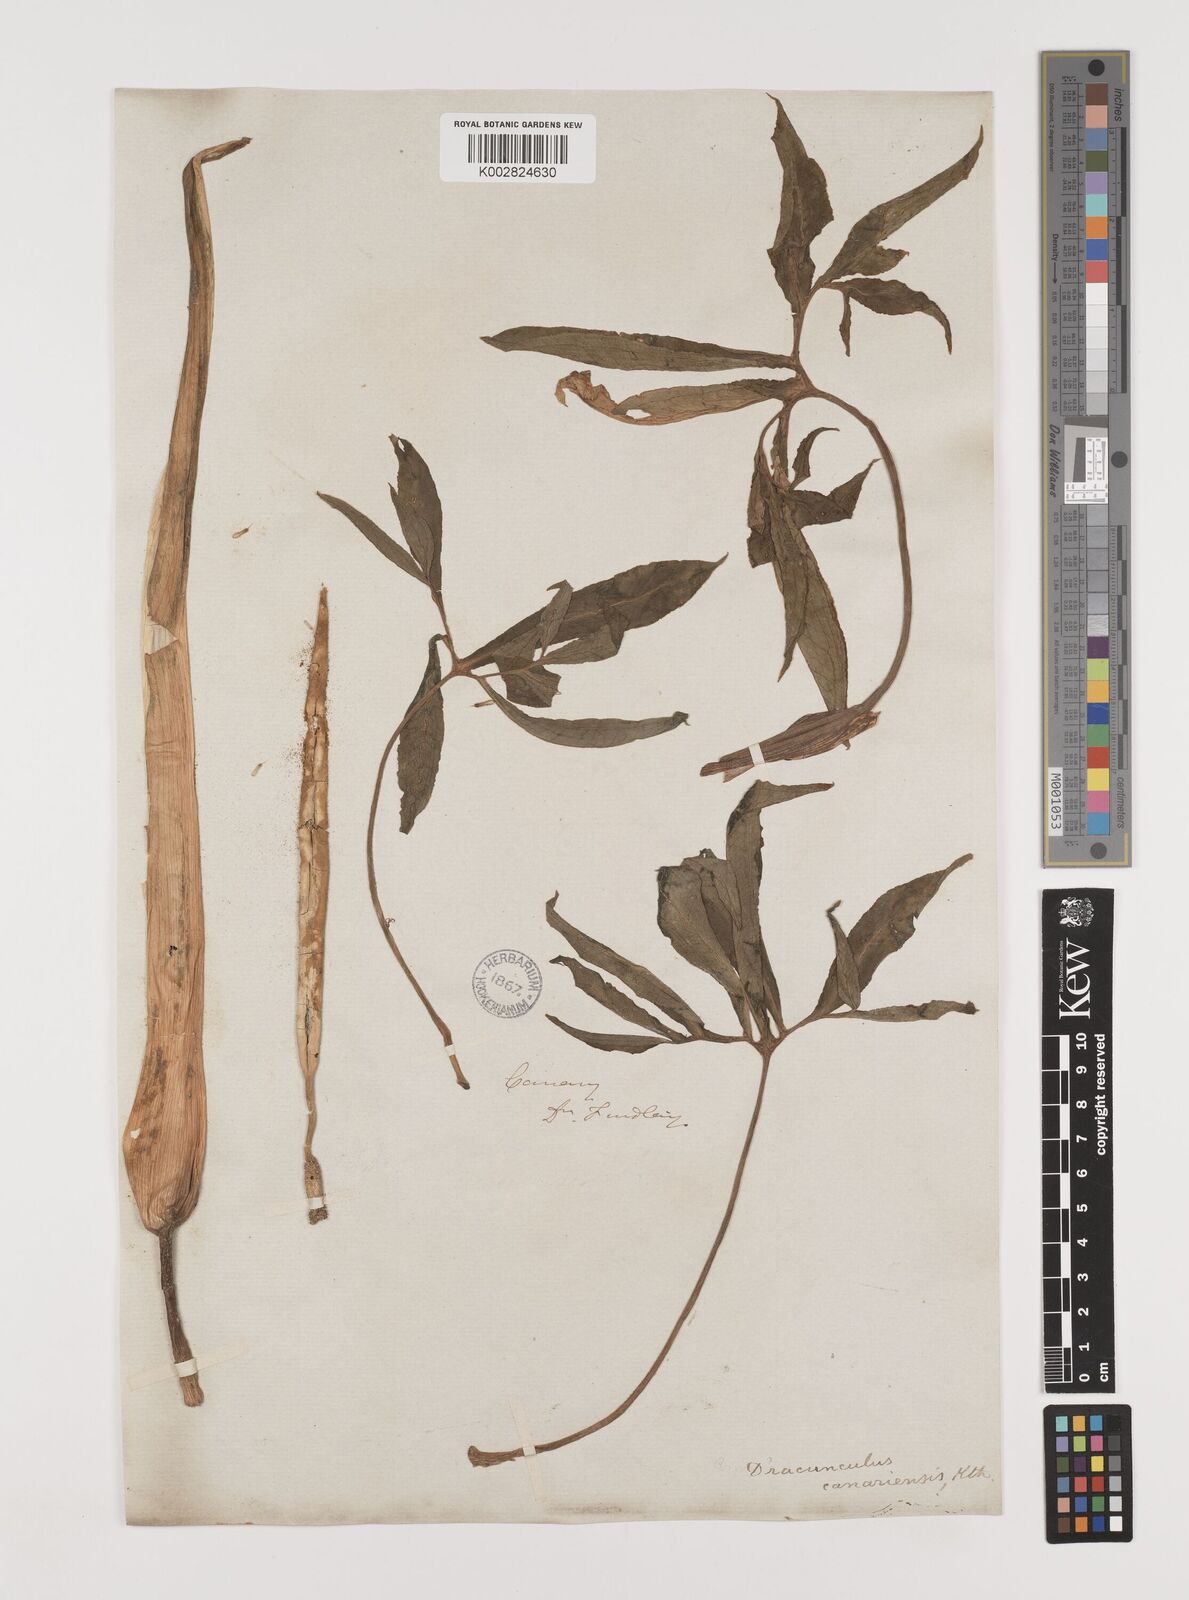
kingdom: Plantae
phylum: Tracheophyta
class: Liliopsida
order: Alismatales
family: Araceae
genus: Dracunculus
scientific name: Dracunculus
